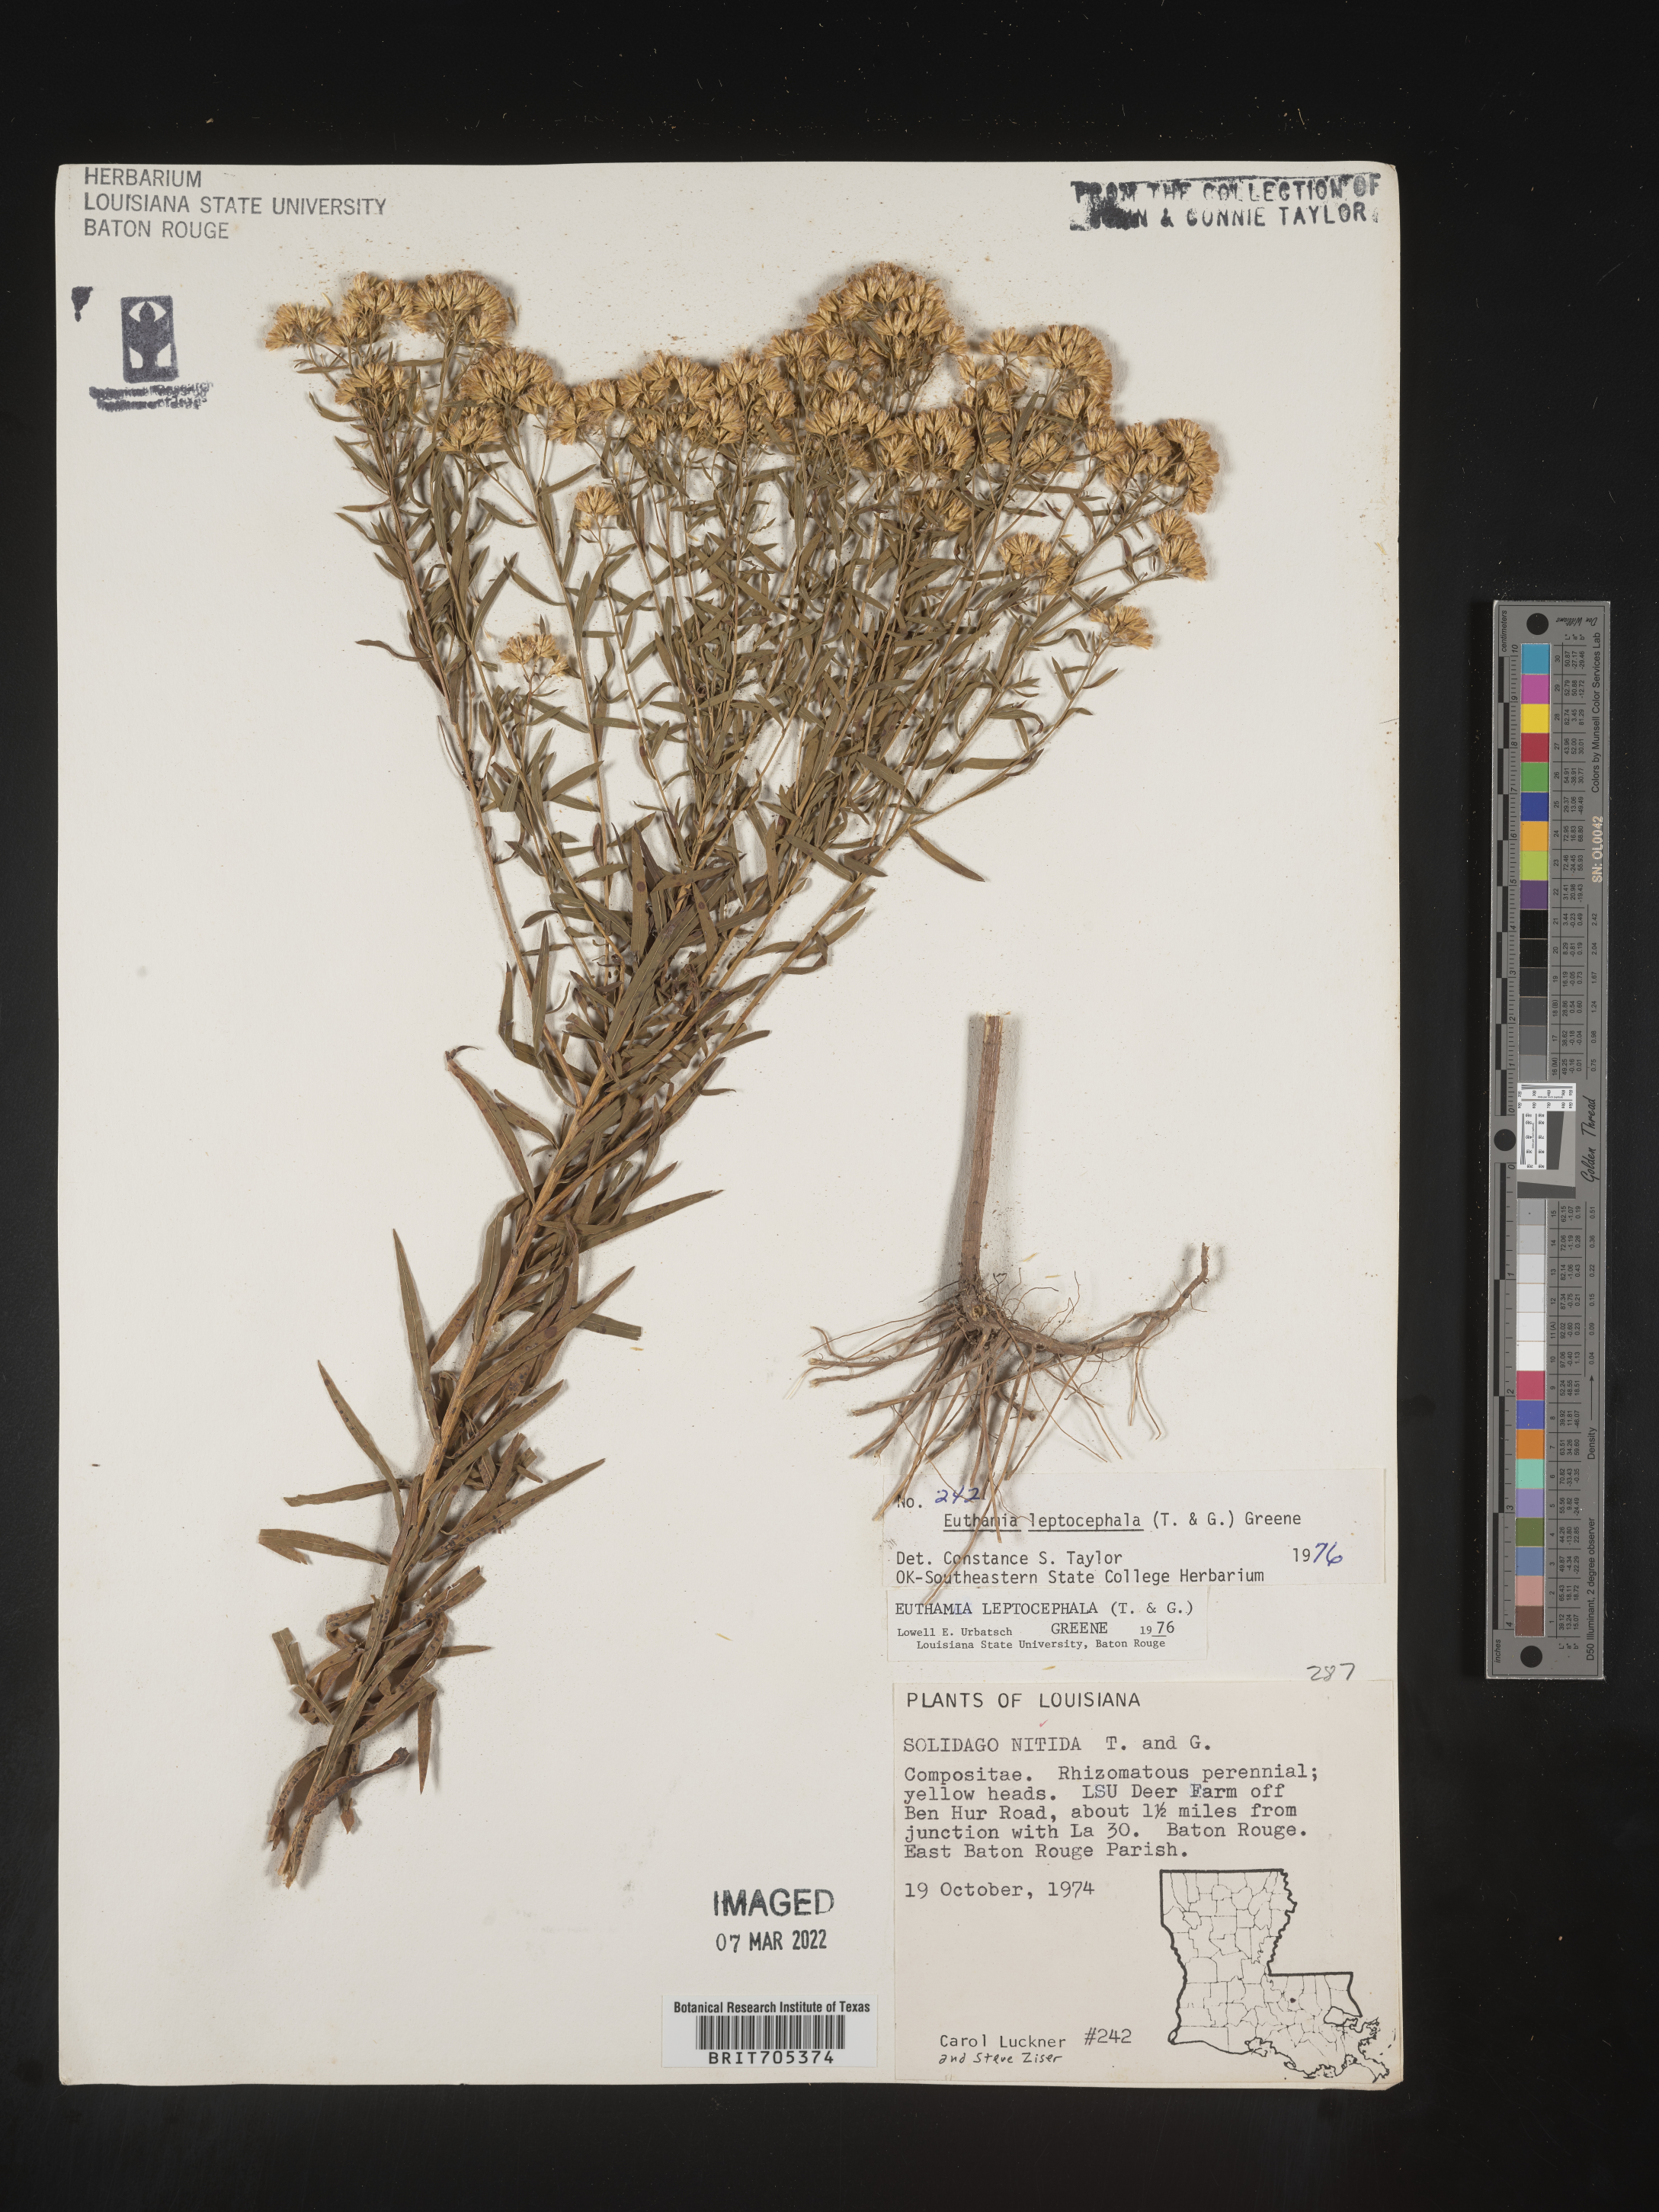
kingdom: Plantae
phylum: Tracheophyta
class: Magnoliopsida
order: Asterales
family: Asteraceae
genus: Euthamia
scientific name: Euthamia leptocephala
